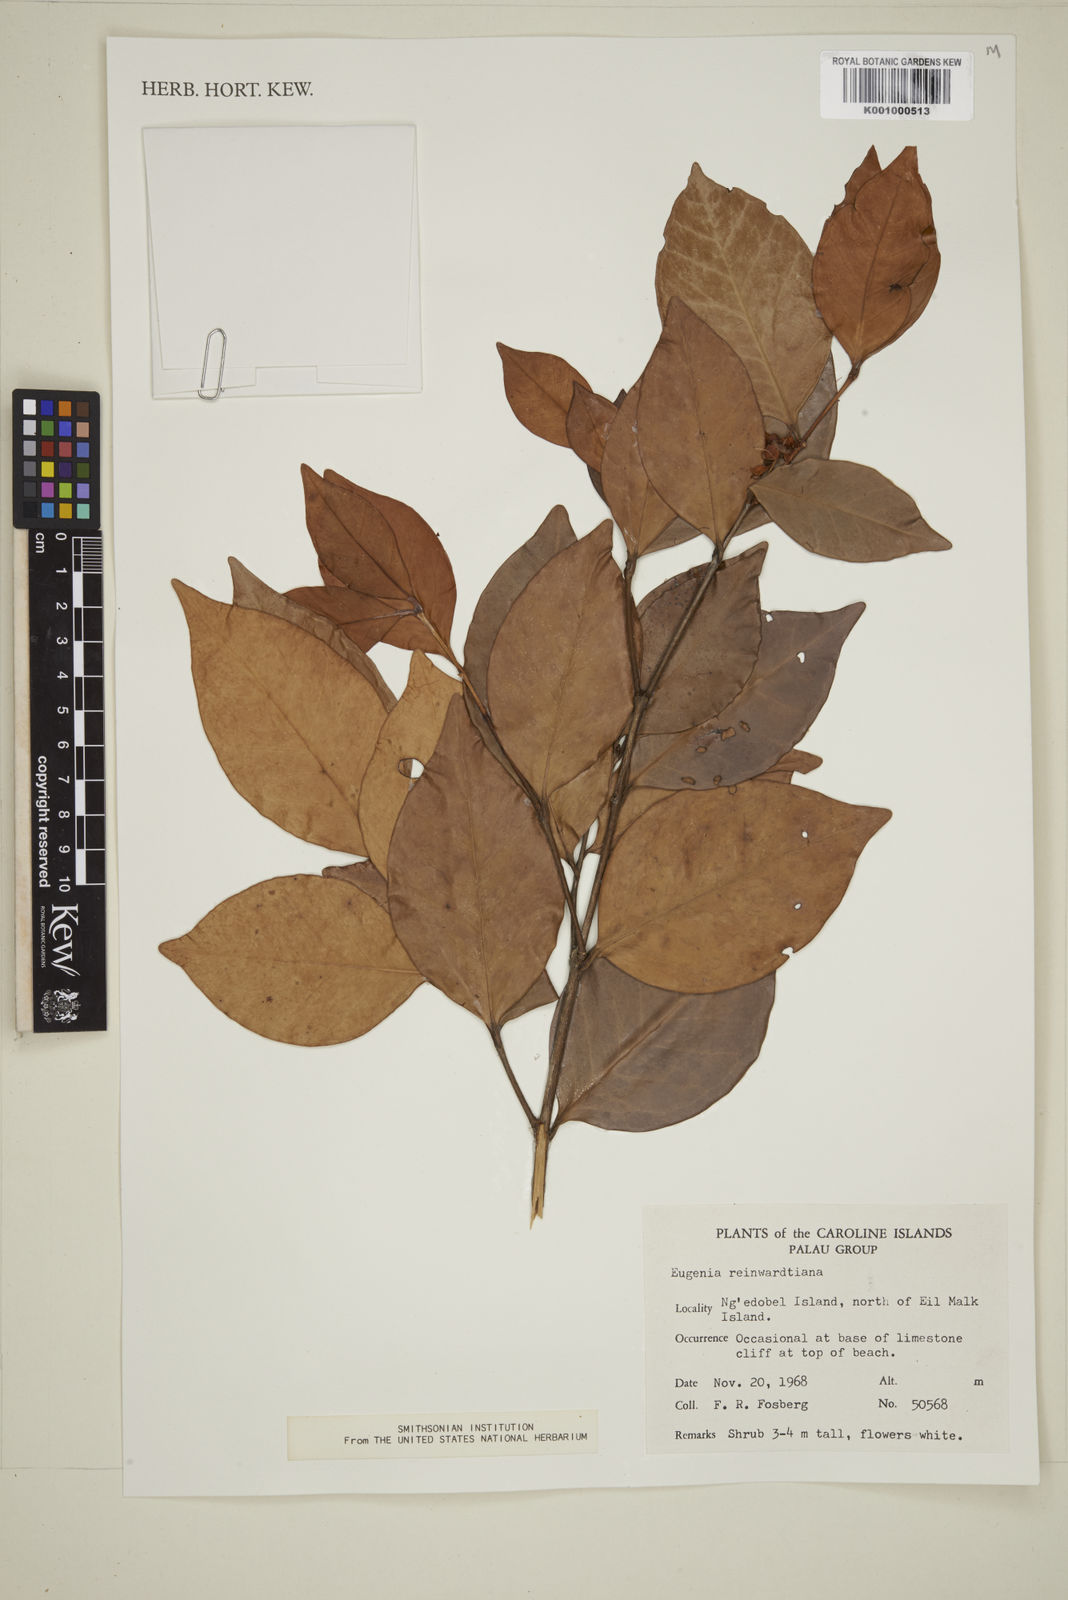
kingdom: Plantae
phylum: Tracheophyta
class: Magnoliopsida
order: Myrtales
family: Myrtaceae
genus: Eugenia
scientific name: Eugenia reinwardtiana
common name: Cedar bay-cherry
